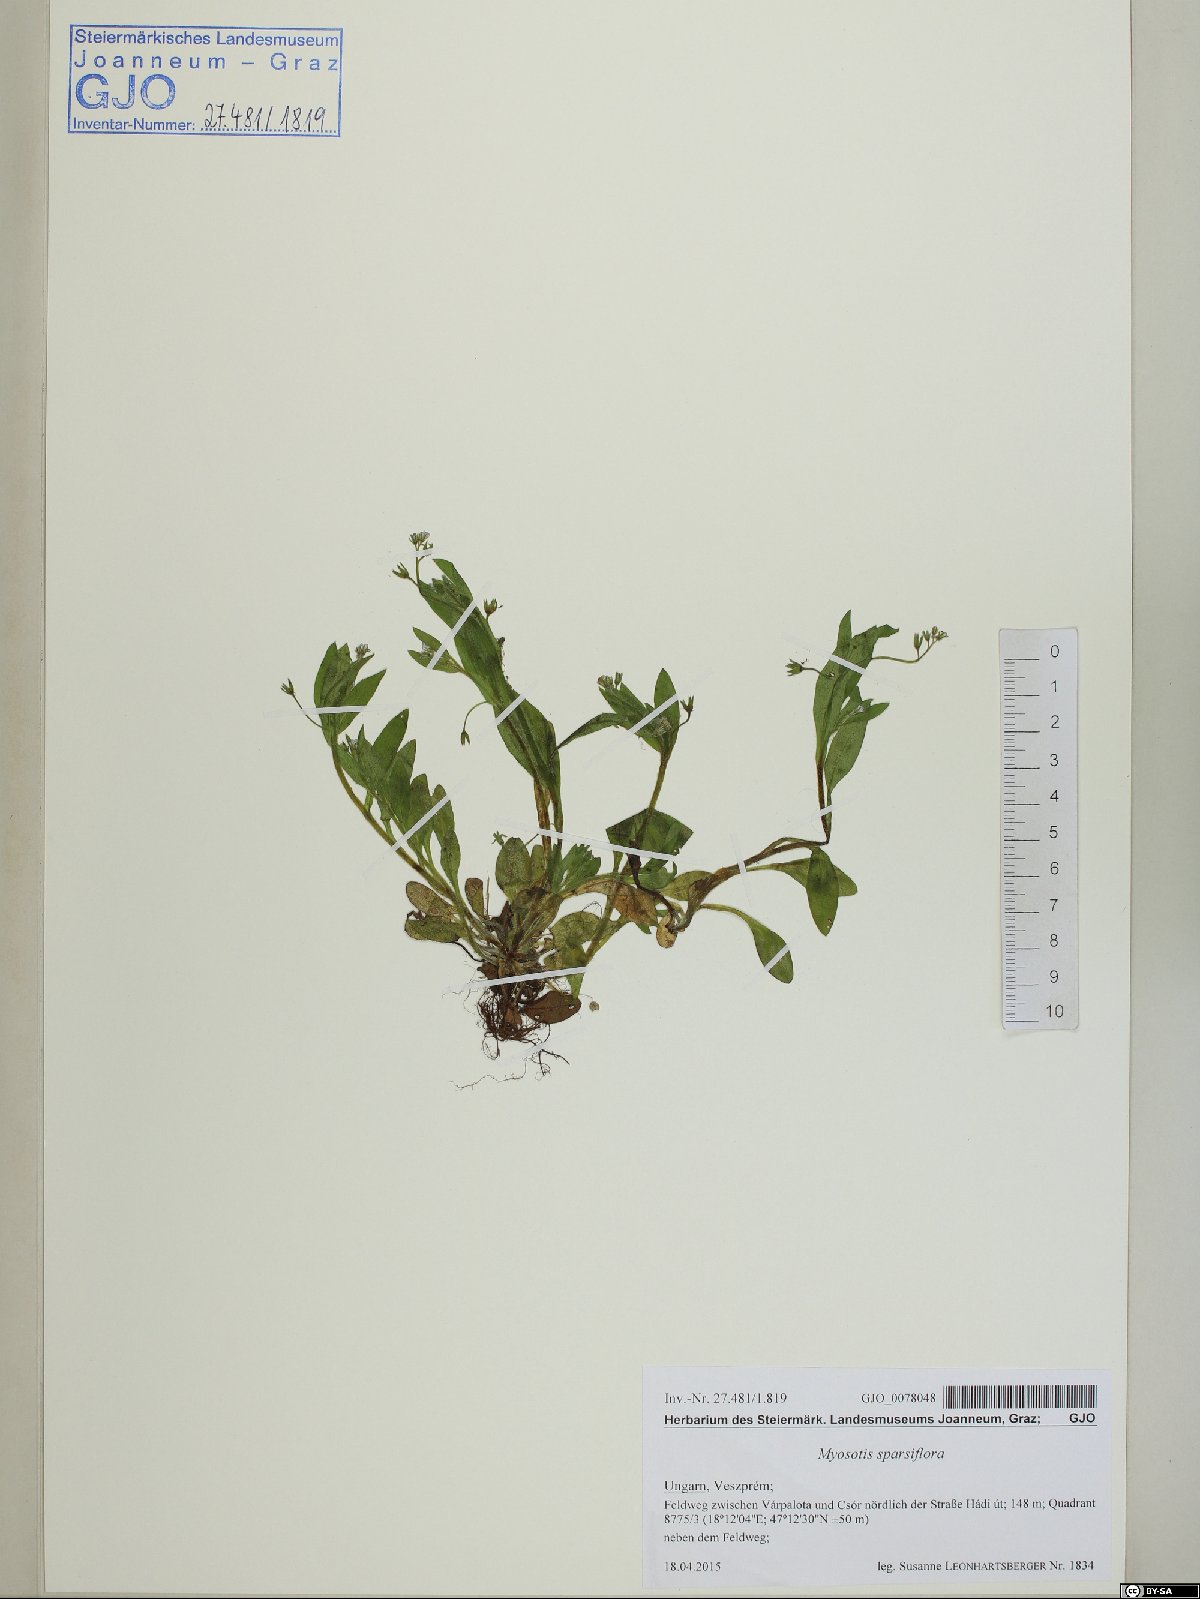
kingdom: Plantae
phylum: Tracheophyta
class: Magnoliopsida
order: Boraginales
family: Boraginaceae
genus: Myosotis
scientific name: Myosotis sparsiflora
